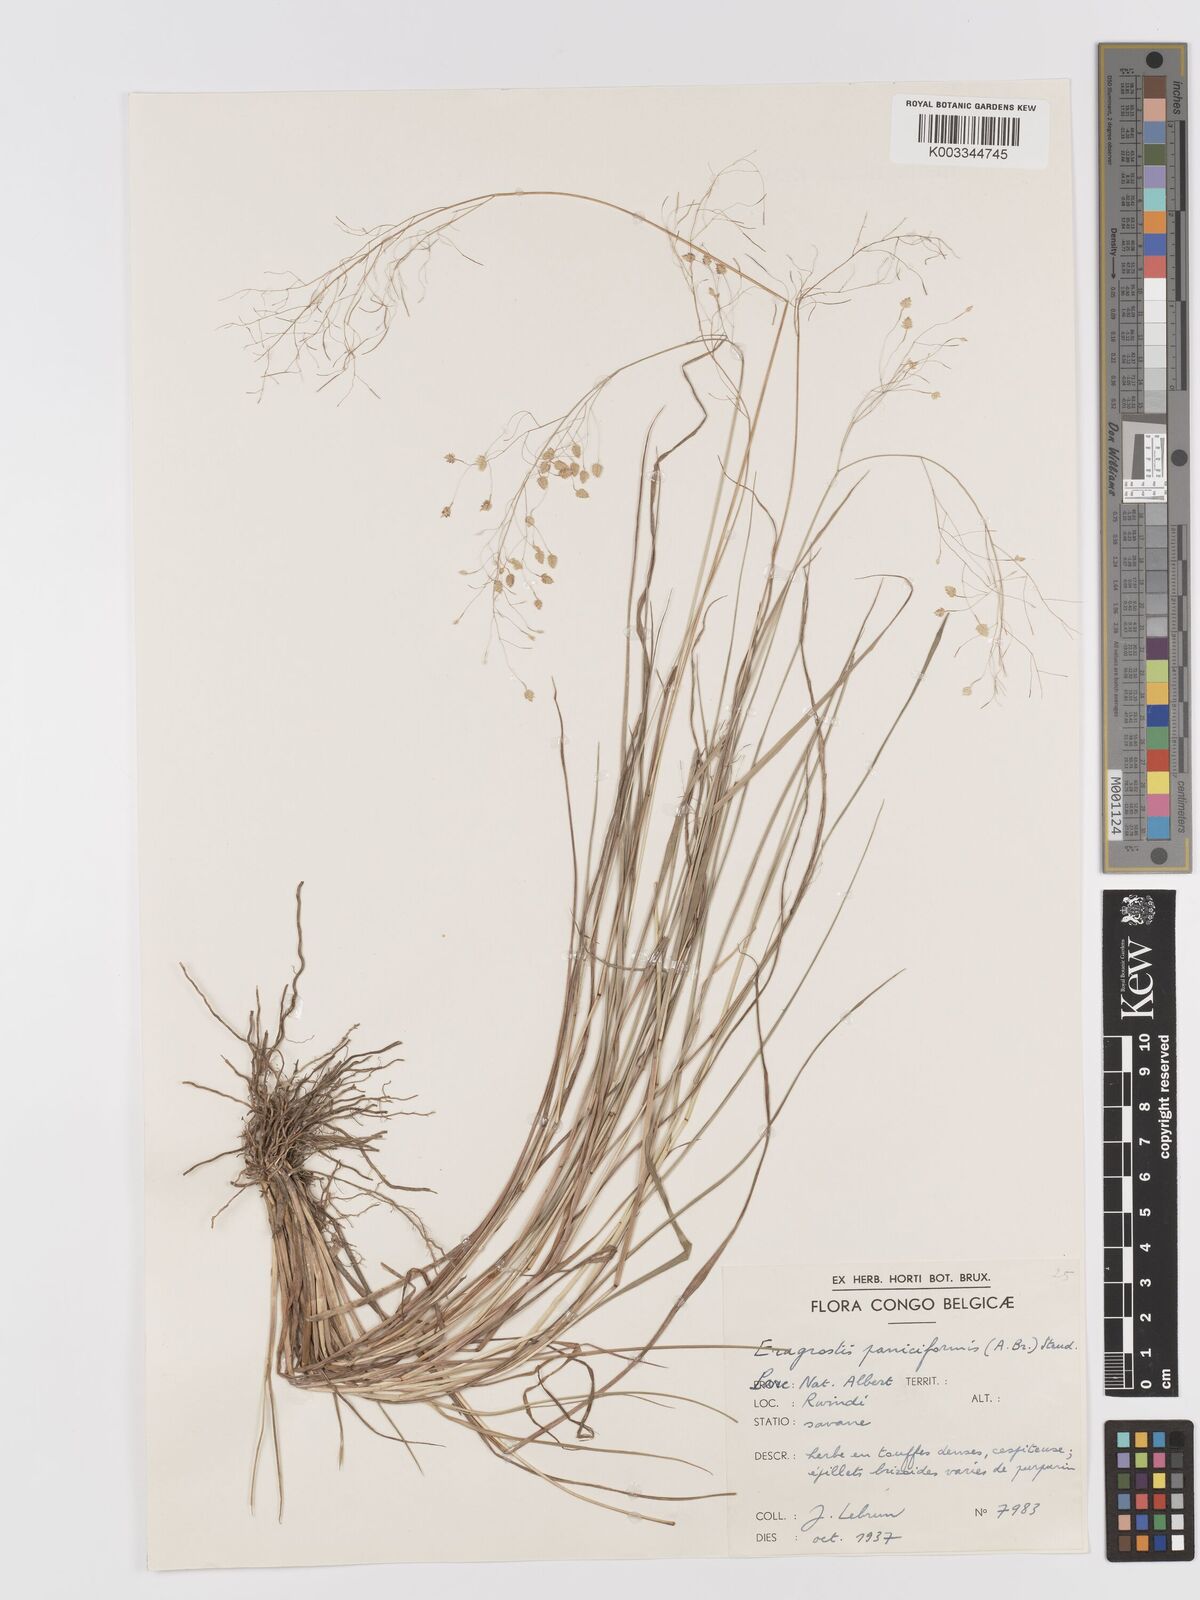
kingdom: Plantae
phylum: Tracheophyta
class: Liliopsida
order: Poales
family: Poaceae
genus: Eragrostis
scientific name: Eragrostis exasperata
